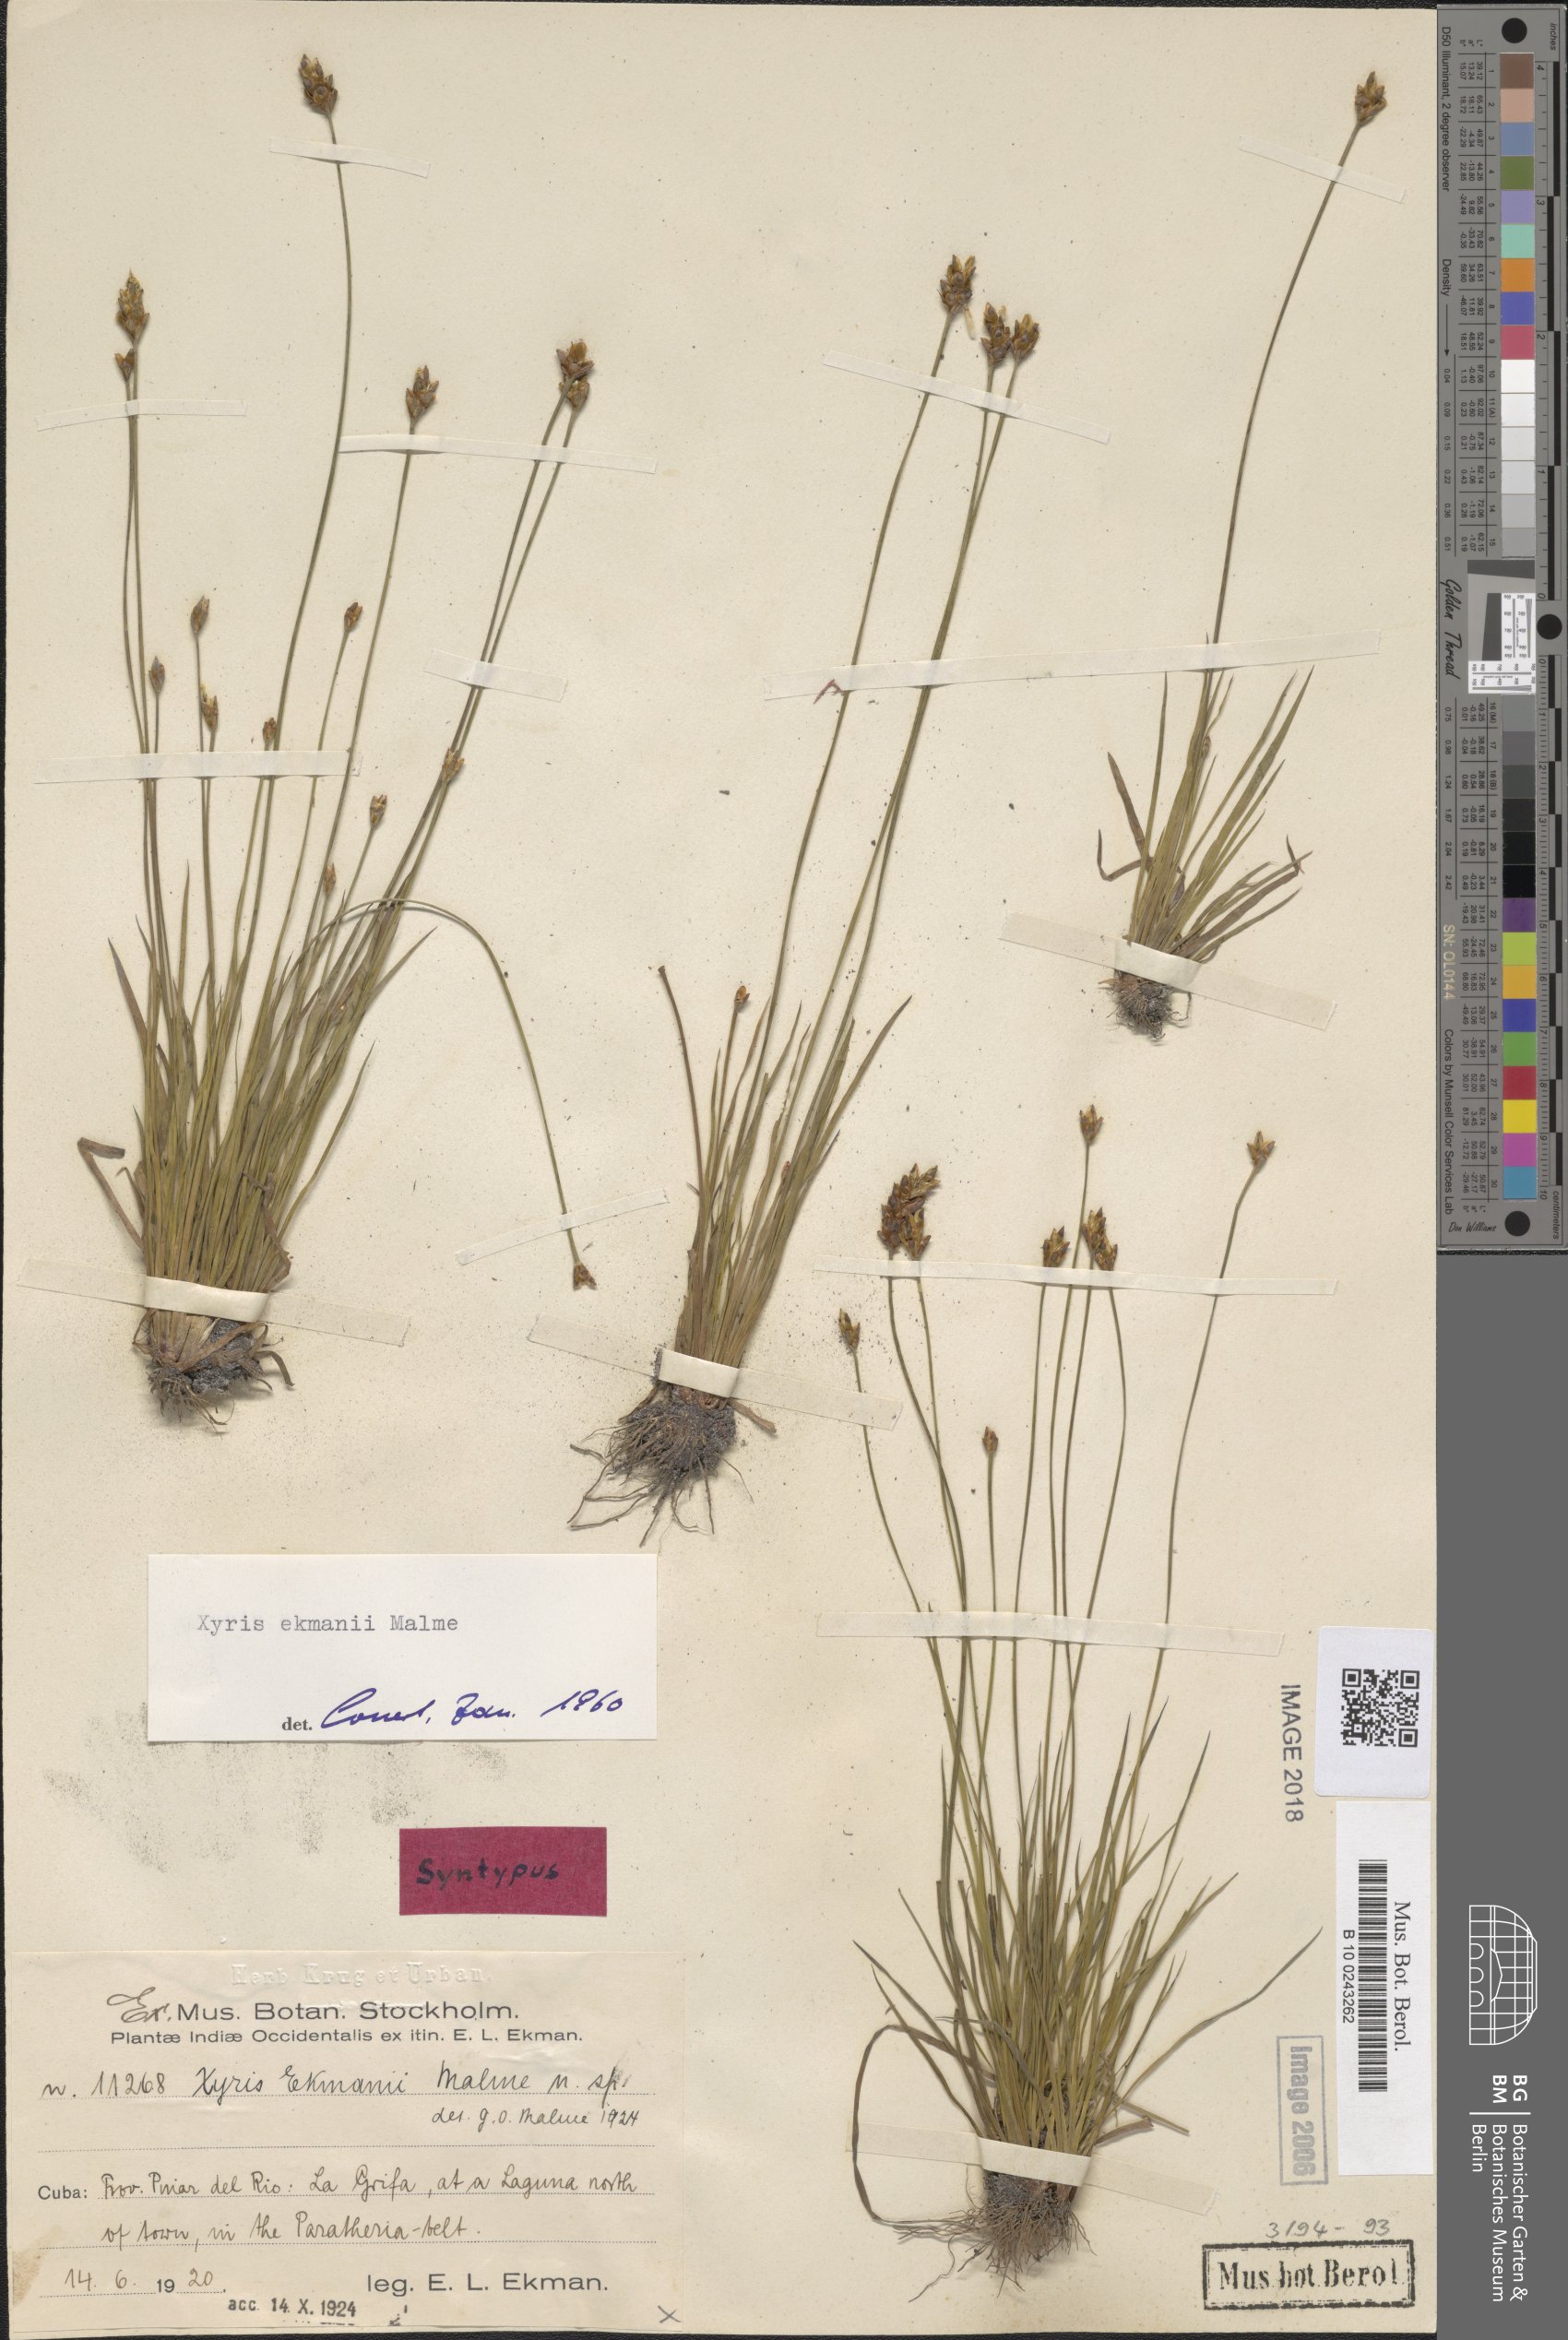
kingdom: Plantae
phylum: Tracheophyta
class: Liliopsida
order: Poales
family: Xyridaceae
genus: Xyris
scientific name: Xyris ekmanii
